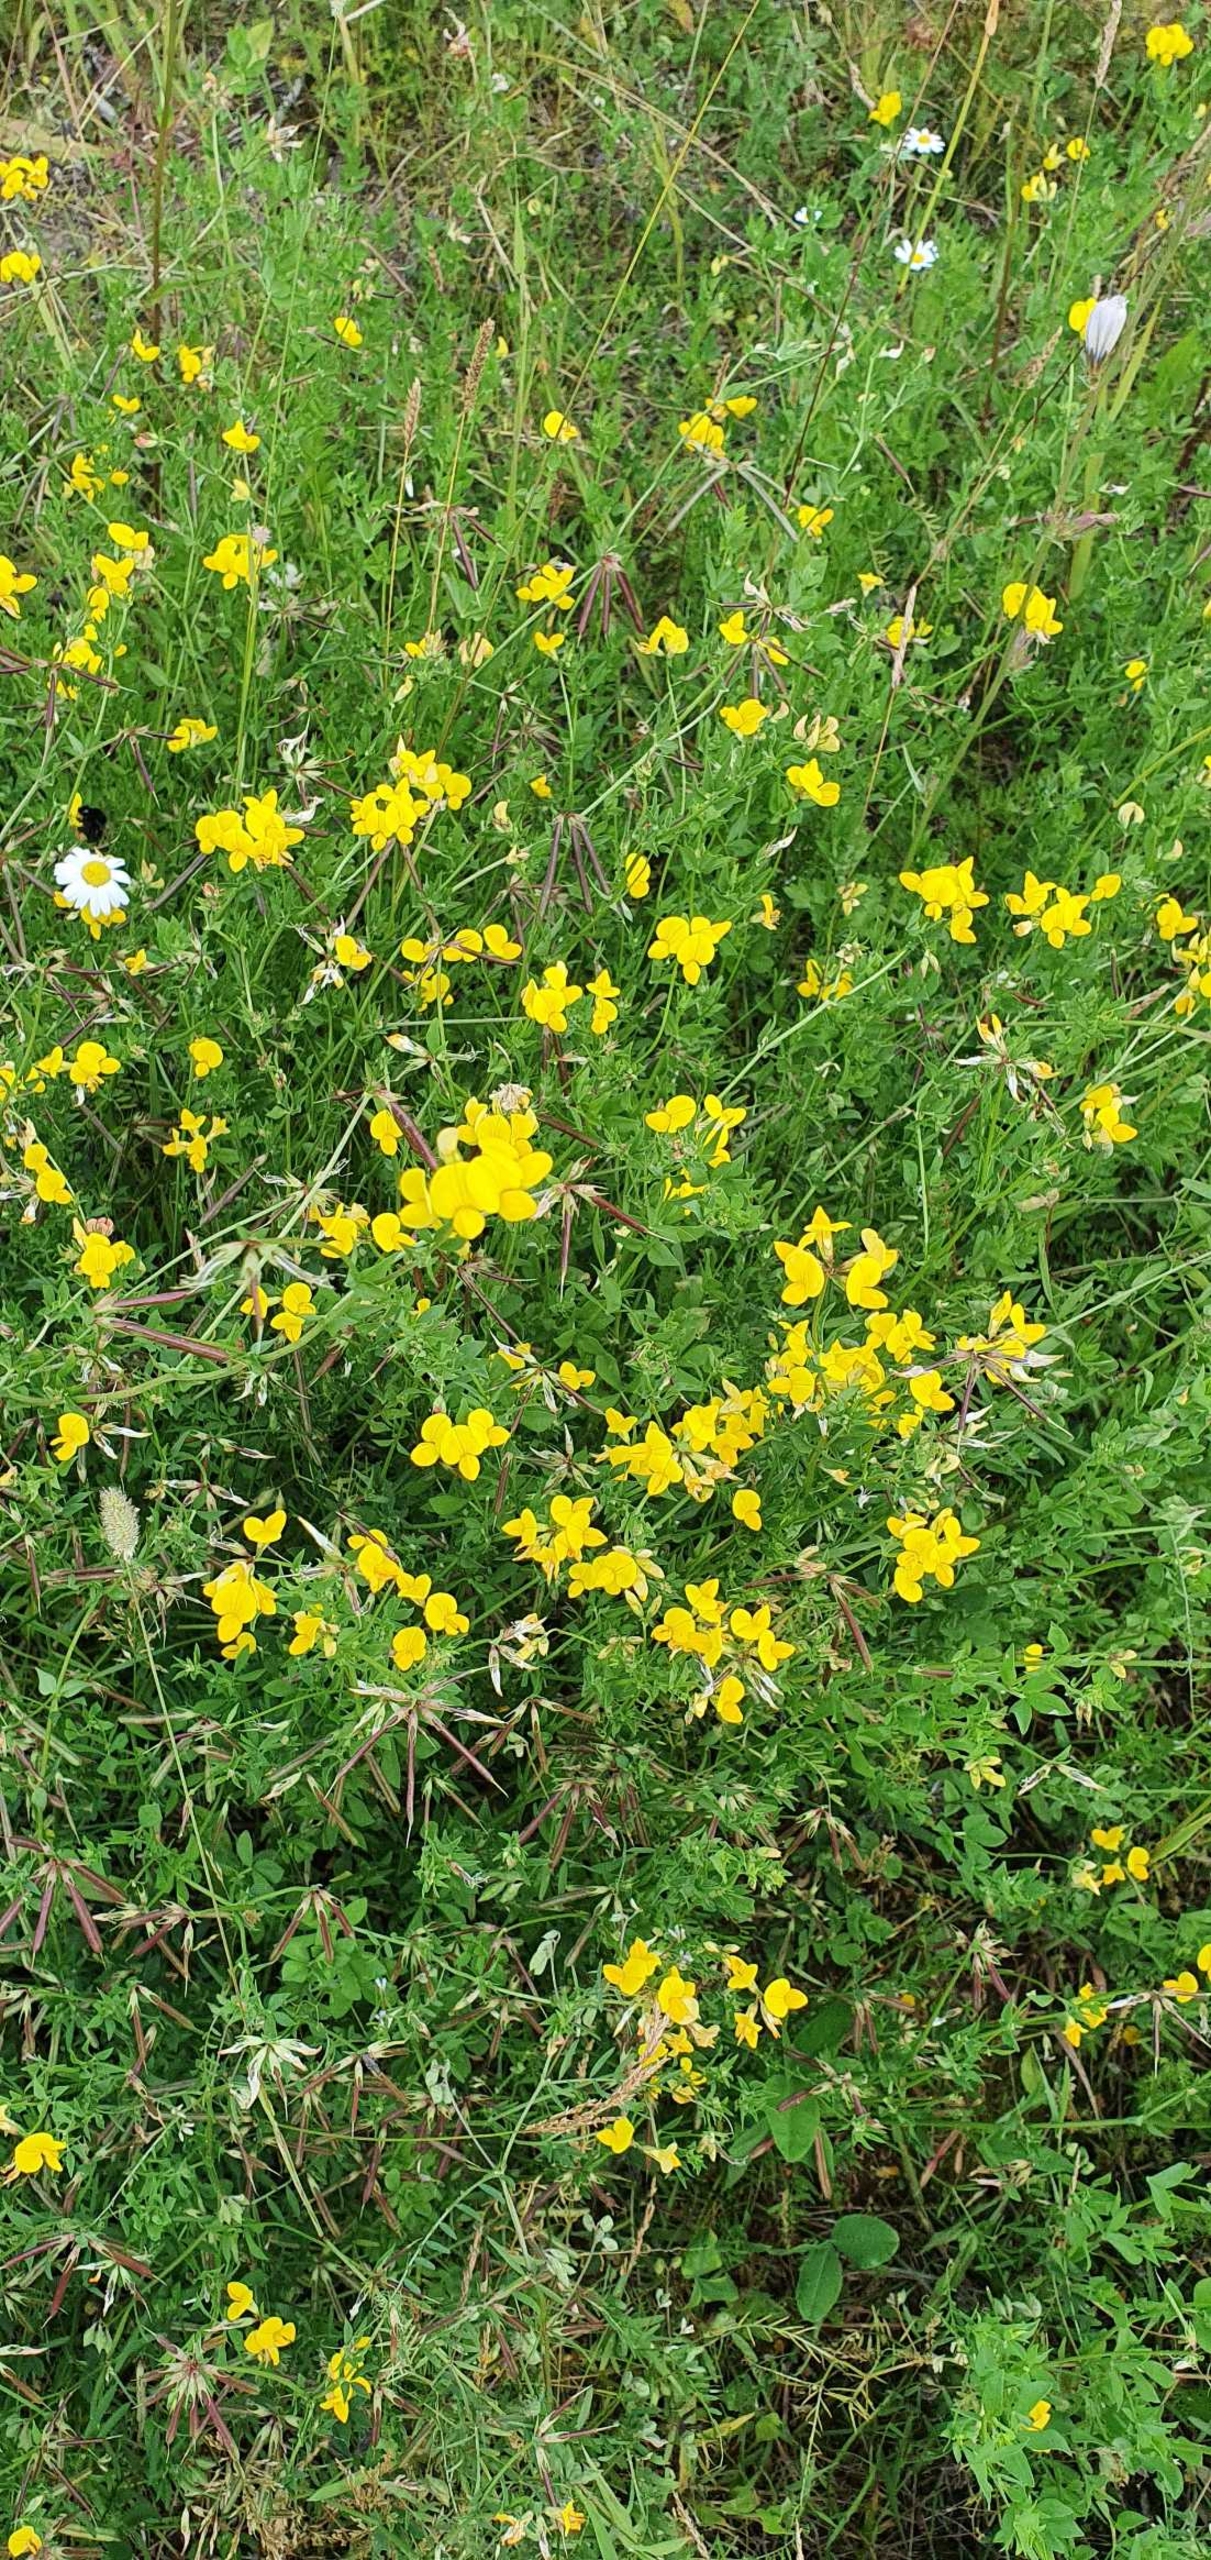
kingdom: Plantae
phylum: Tracheophyta
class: Magnoliopsida
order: Fabales
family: Fabaceae
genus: Lotus
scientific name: Lotus corniculatus
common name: Almindelig kællingetand
